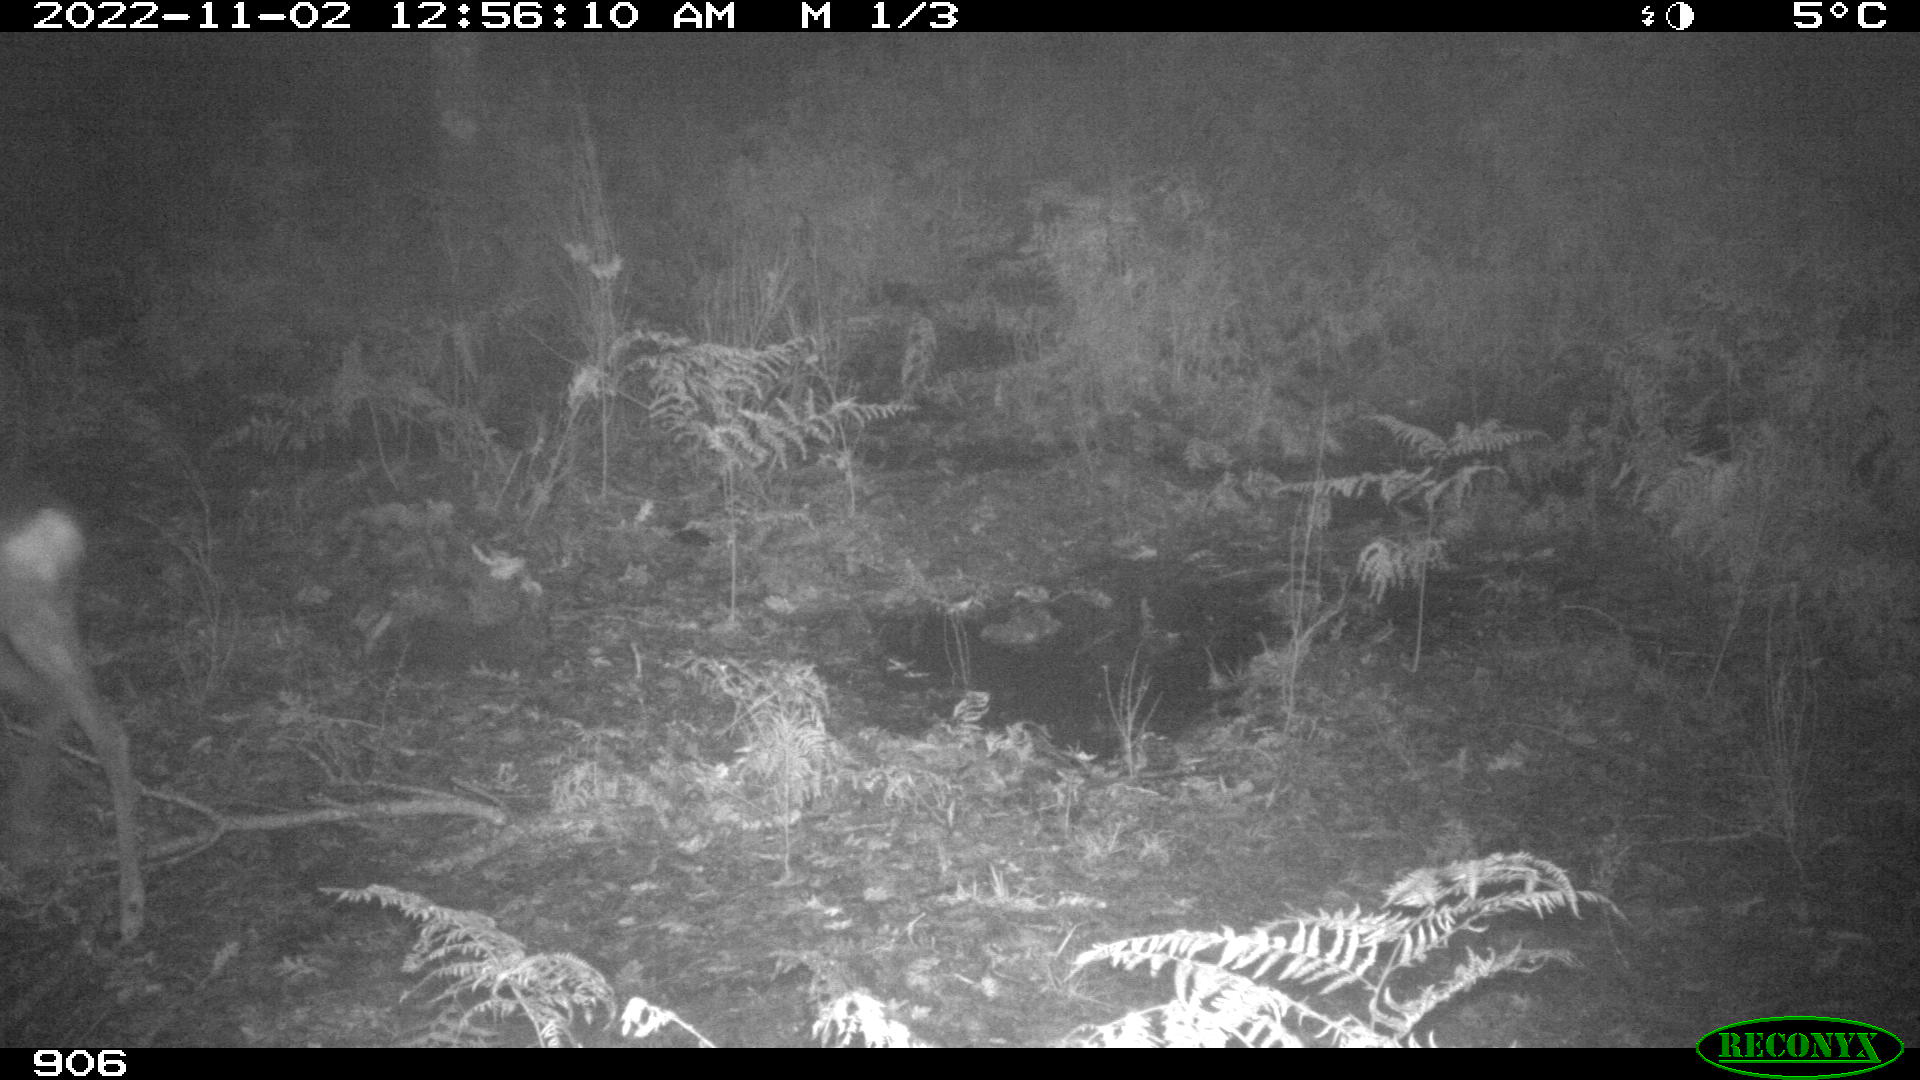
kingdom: Animalia
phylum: Chordata
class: Mammalia
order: Artiodactyla
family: Cervidae
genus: Capreolus
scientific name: Capreolus capreolus
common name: Western roe deer
